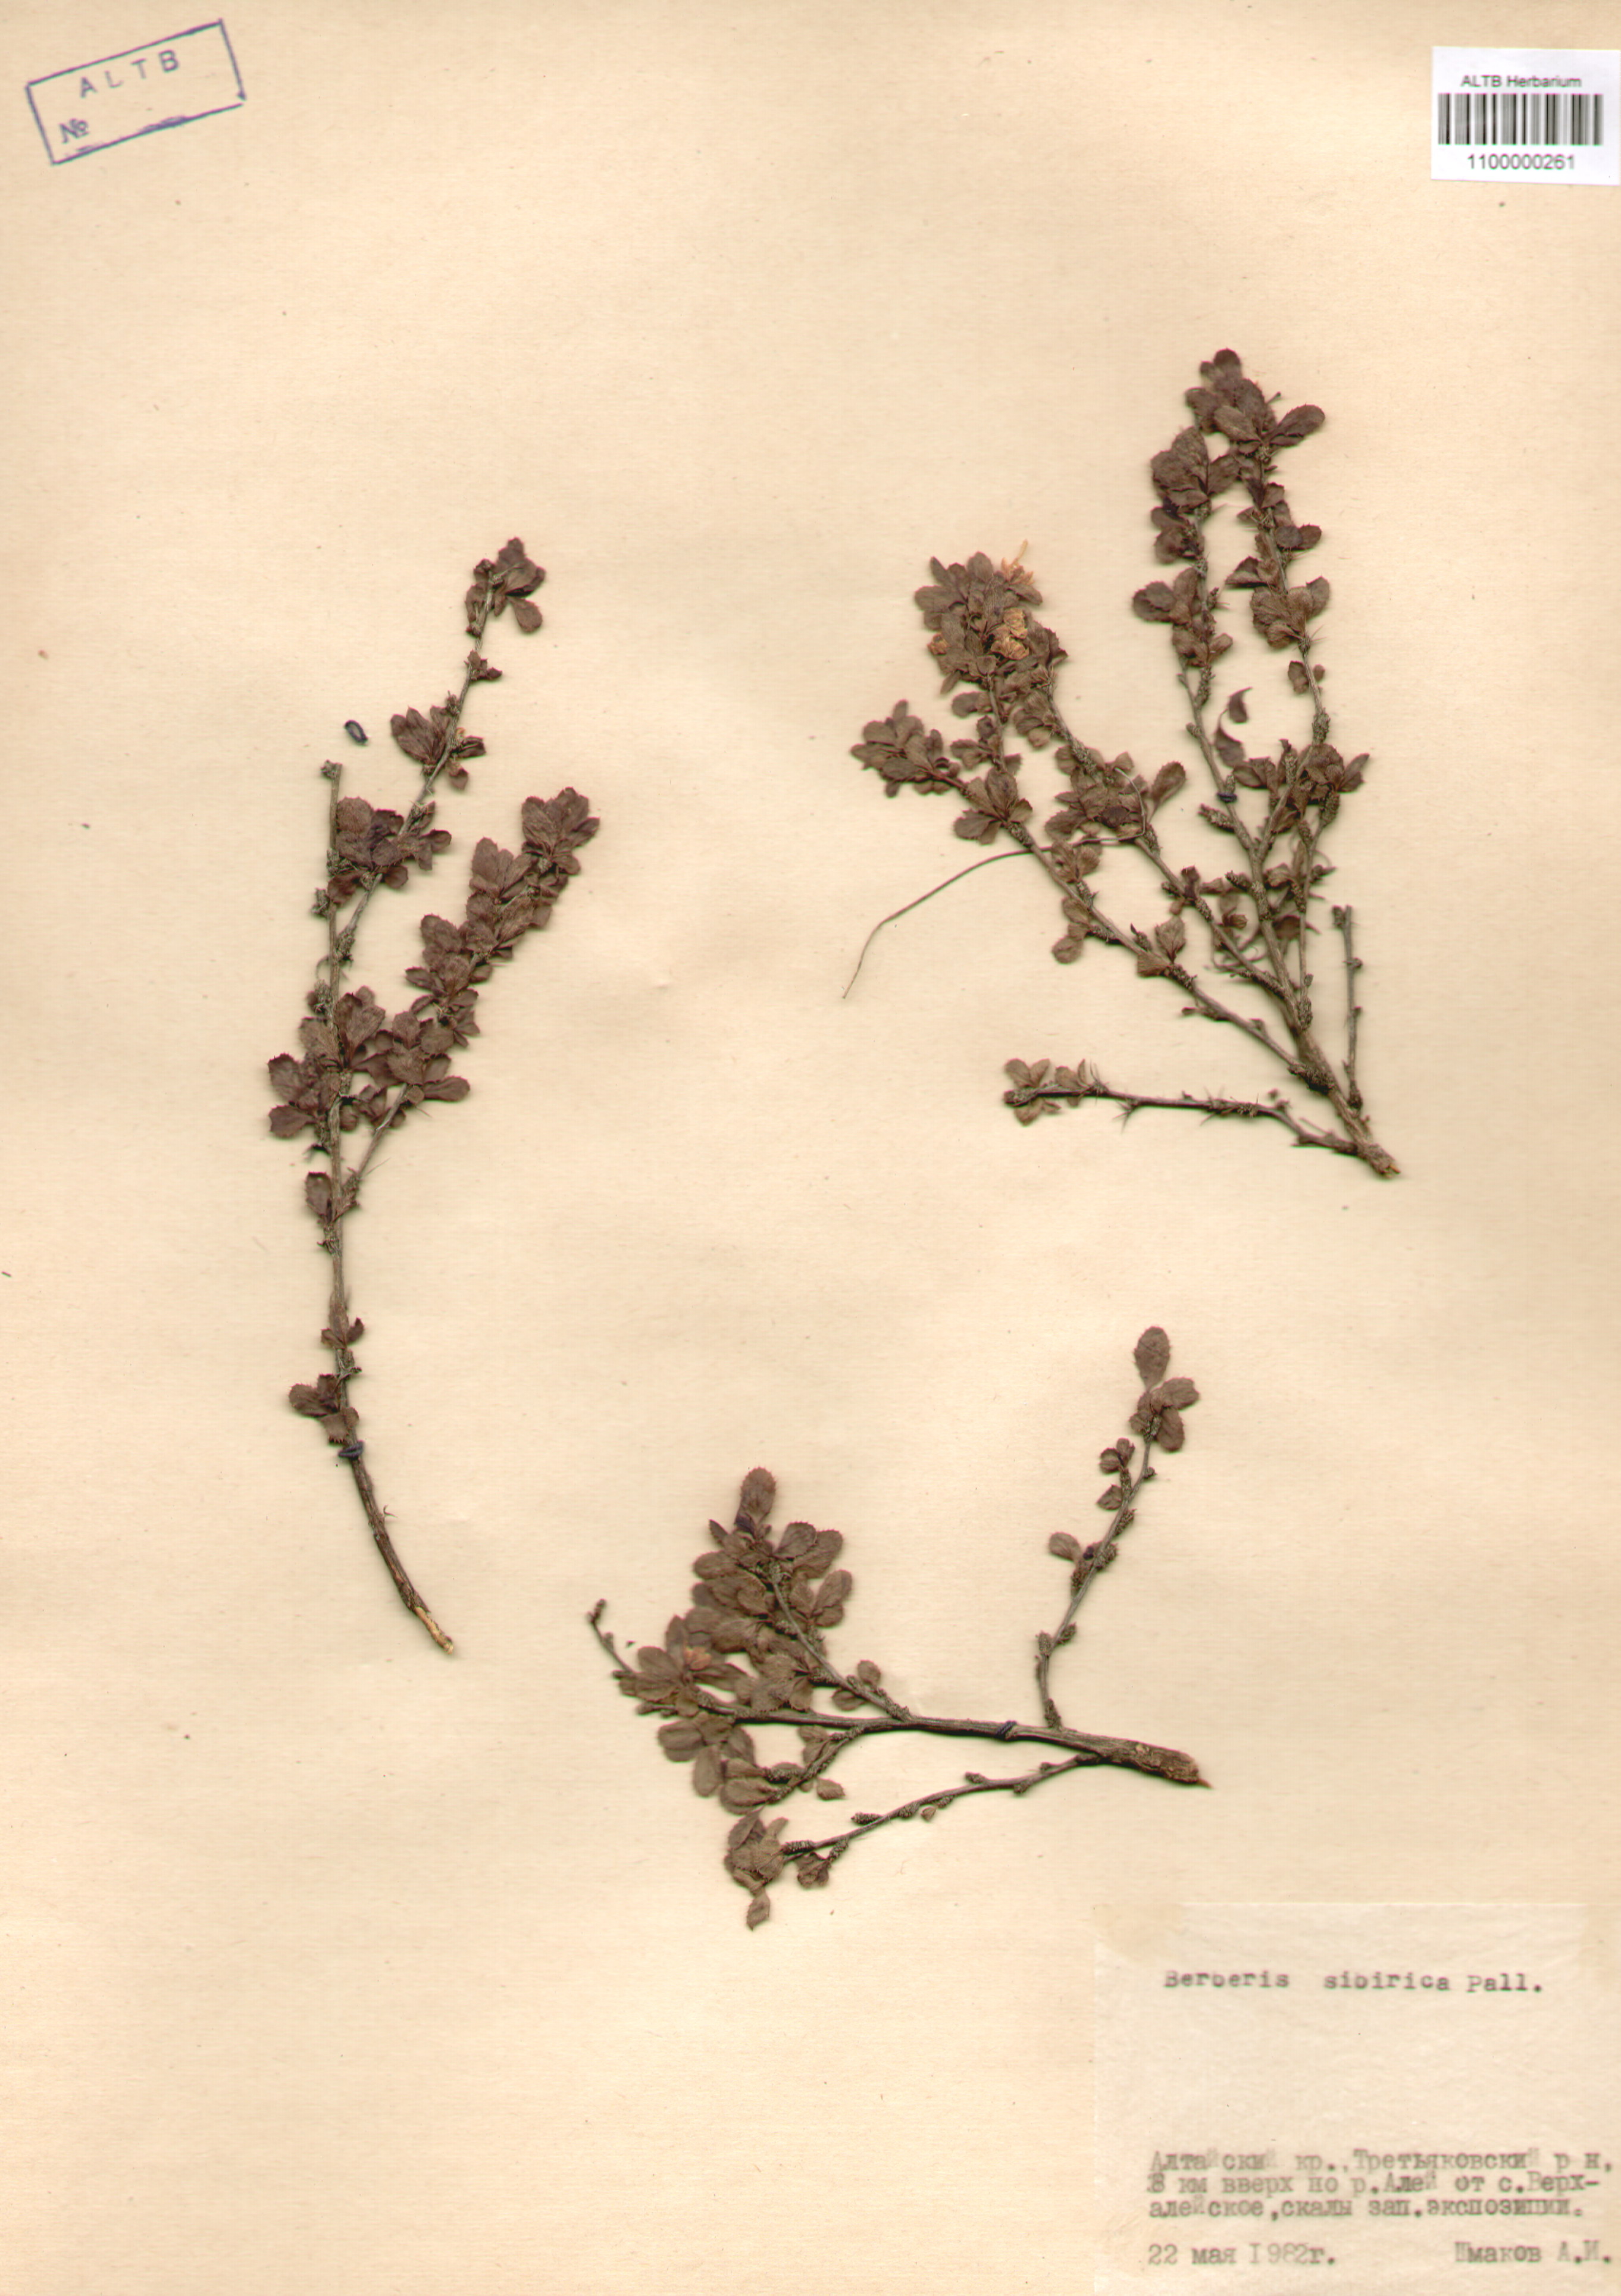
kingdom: Plantae
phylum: Tracheophyta
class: Magnoliopsida
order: Ranunculales
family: Berberidaceae
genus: Berberis
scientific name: Berberis sibirica
